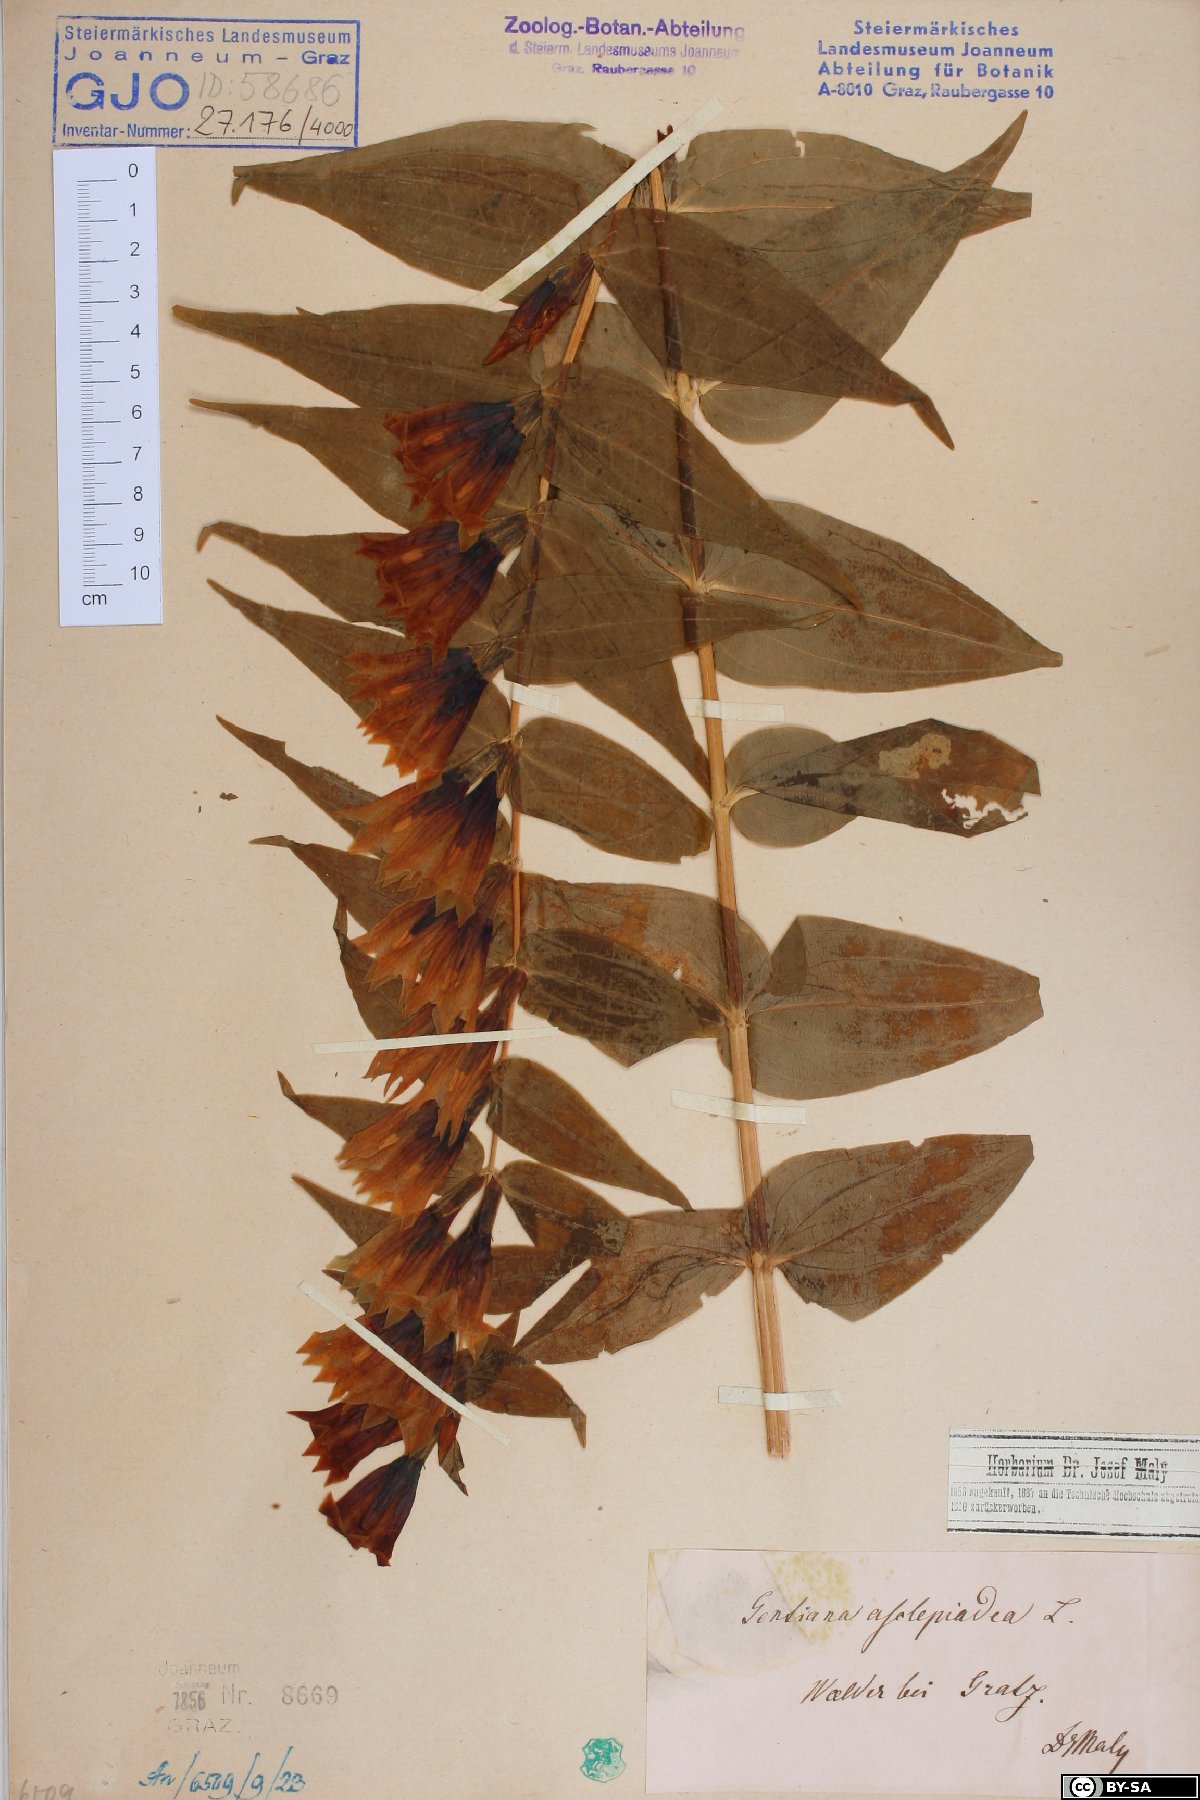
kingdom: Plantae
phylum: Tracheophyta
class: Magnoliopsida
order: Gentianales
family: Gentianaceae
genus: Gentiana
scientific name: Gentiana asclepiadea
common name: Willow gentian
